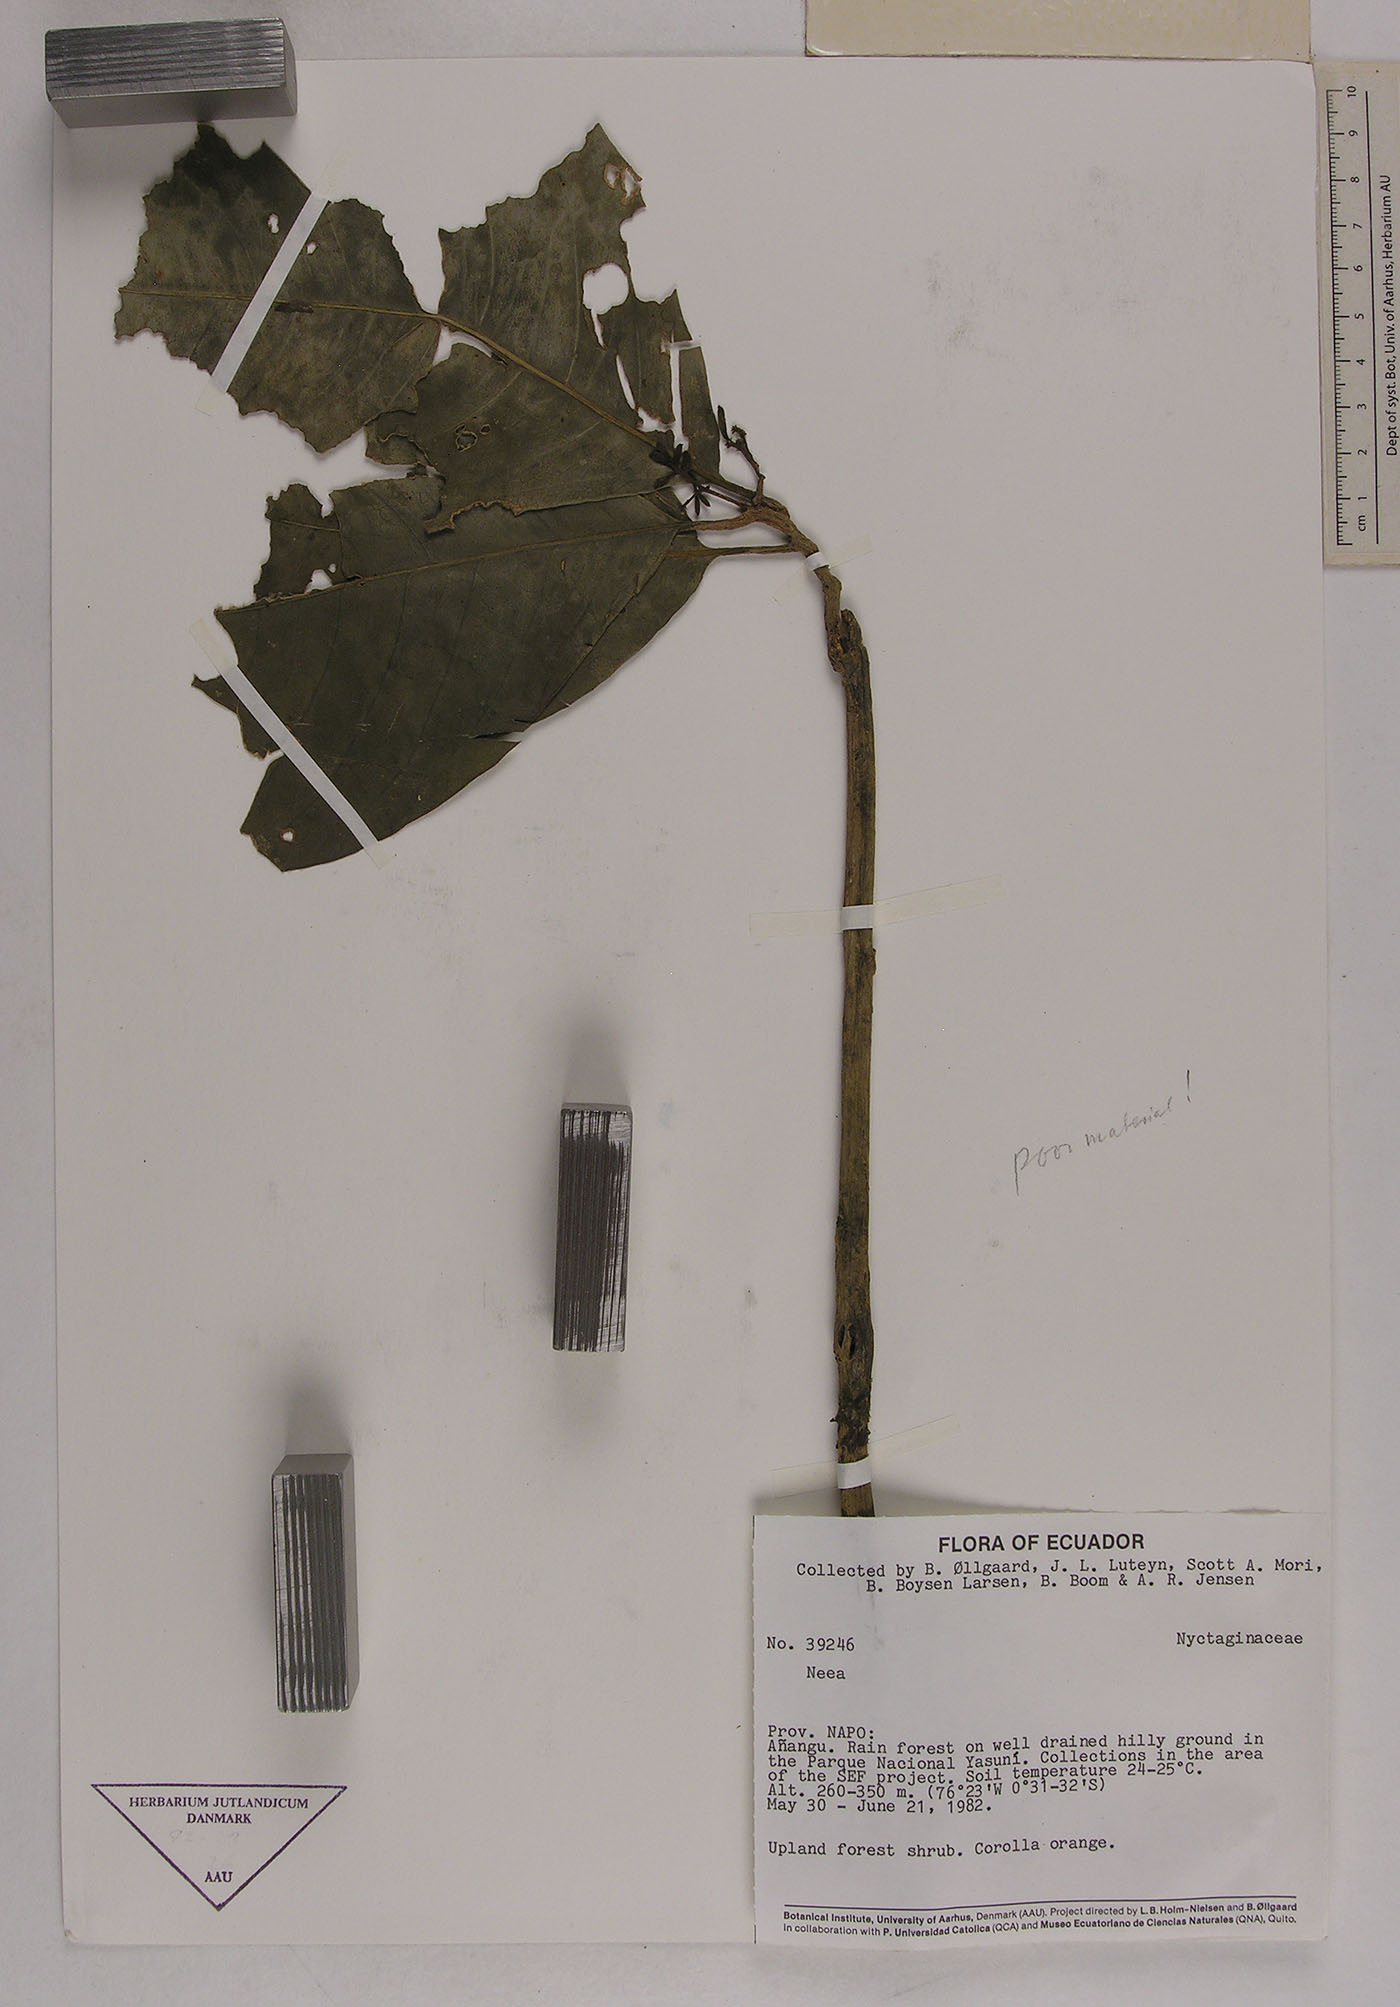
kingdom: Plantae
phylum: Tracheophyta
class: Magnoliopsida
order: Caryophyllales
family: Nyctaginaceae
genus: Neea
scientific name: Neea
